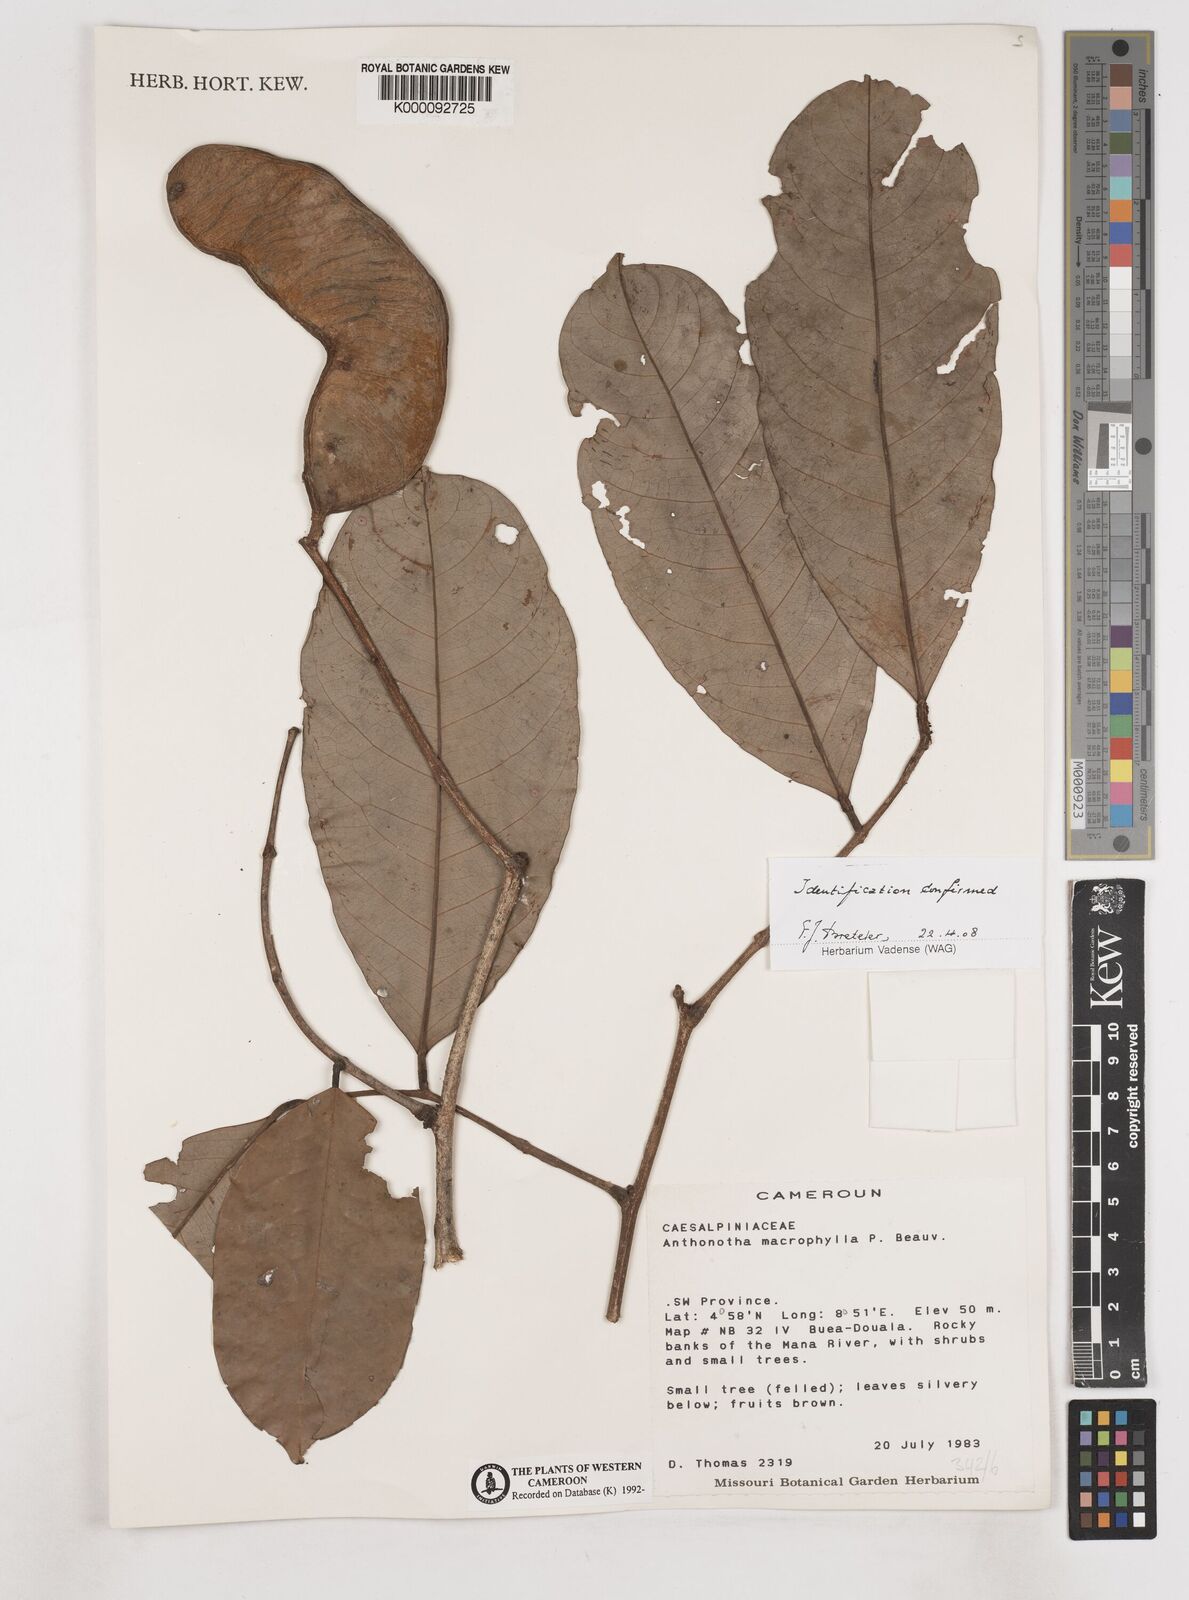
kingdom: Plantae
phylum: Tracheophyta
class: Magnoliopsida
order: Fabales
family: Fabaceae
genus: Anthonotha
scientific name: Anthonotha macrophylla
